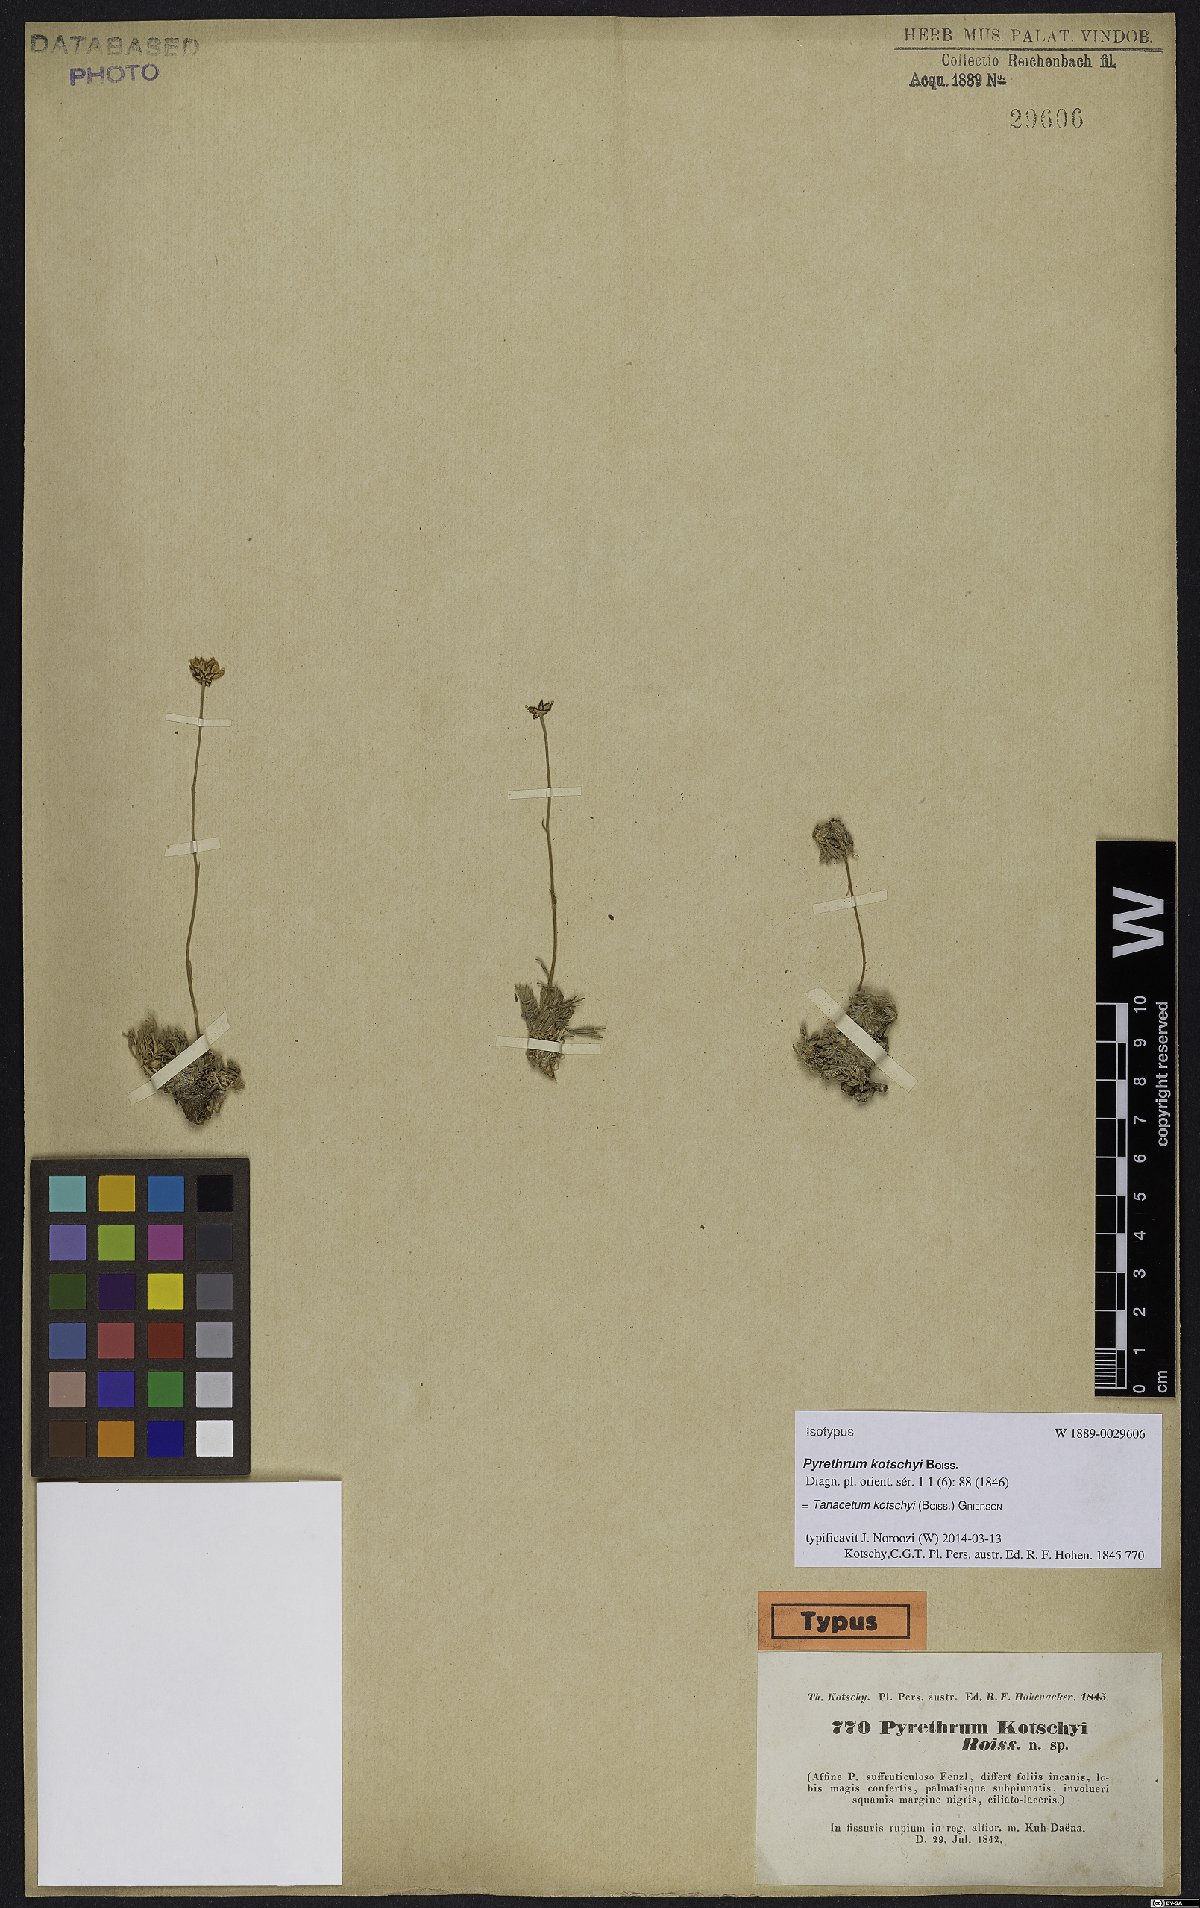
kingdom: Plantae
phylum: Tracheophyta
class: Magnoliopsida
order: Asterales
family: Asteraceae
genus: Tanacetum
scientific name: Tanacetum kotschyi
